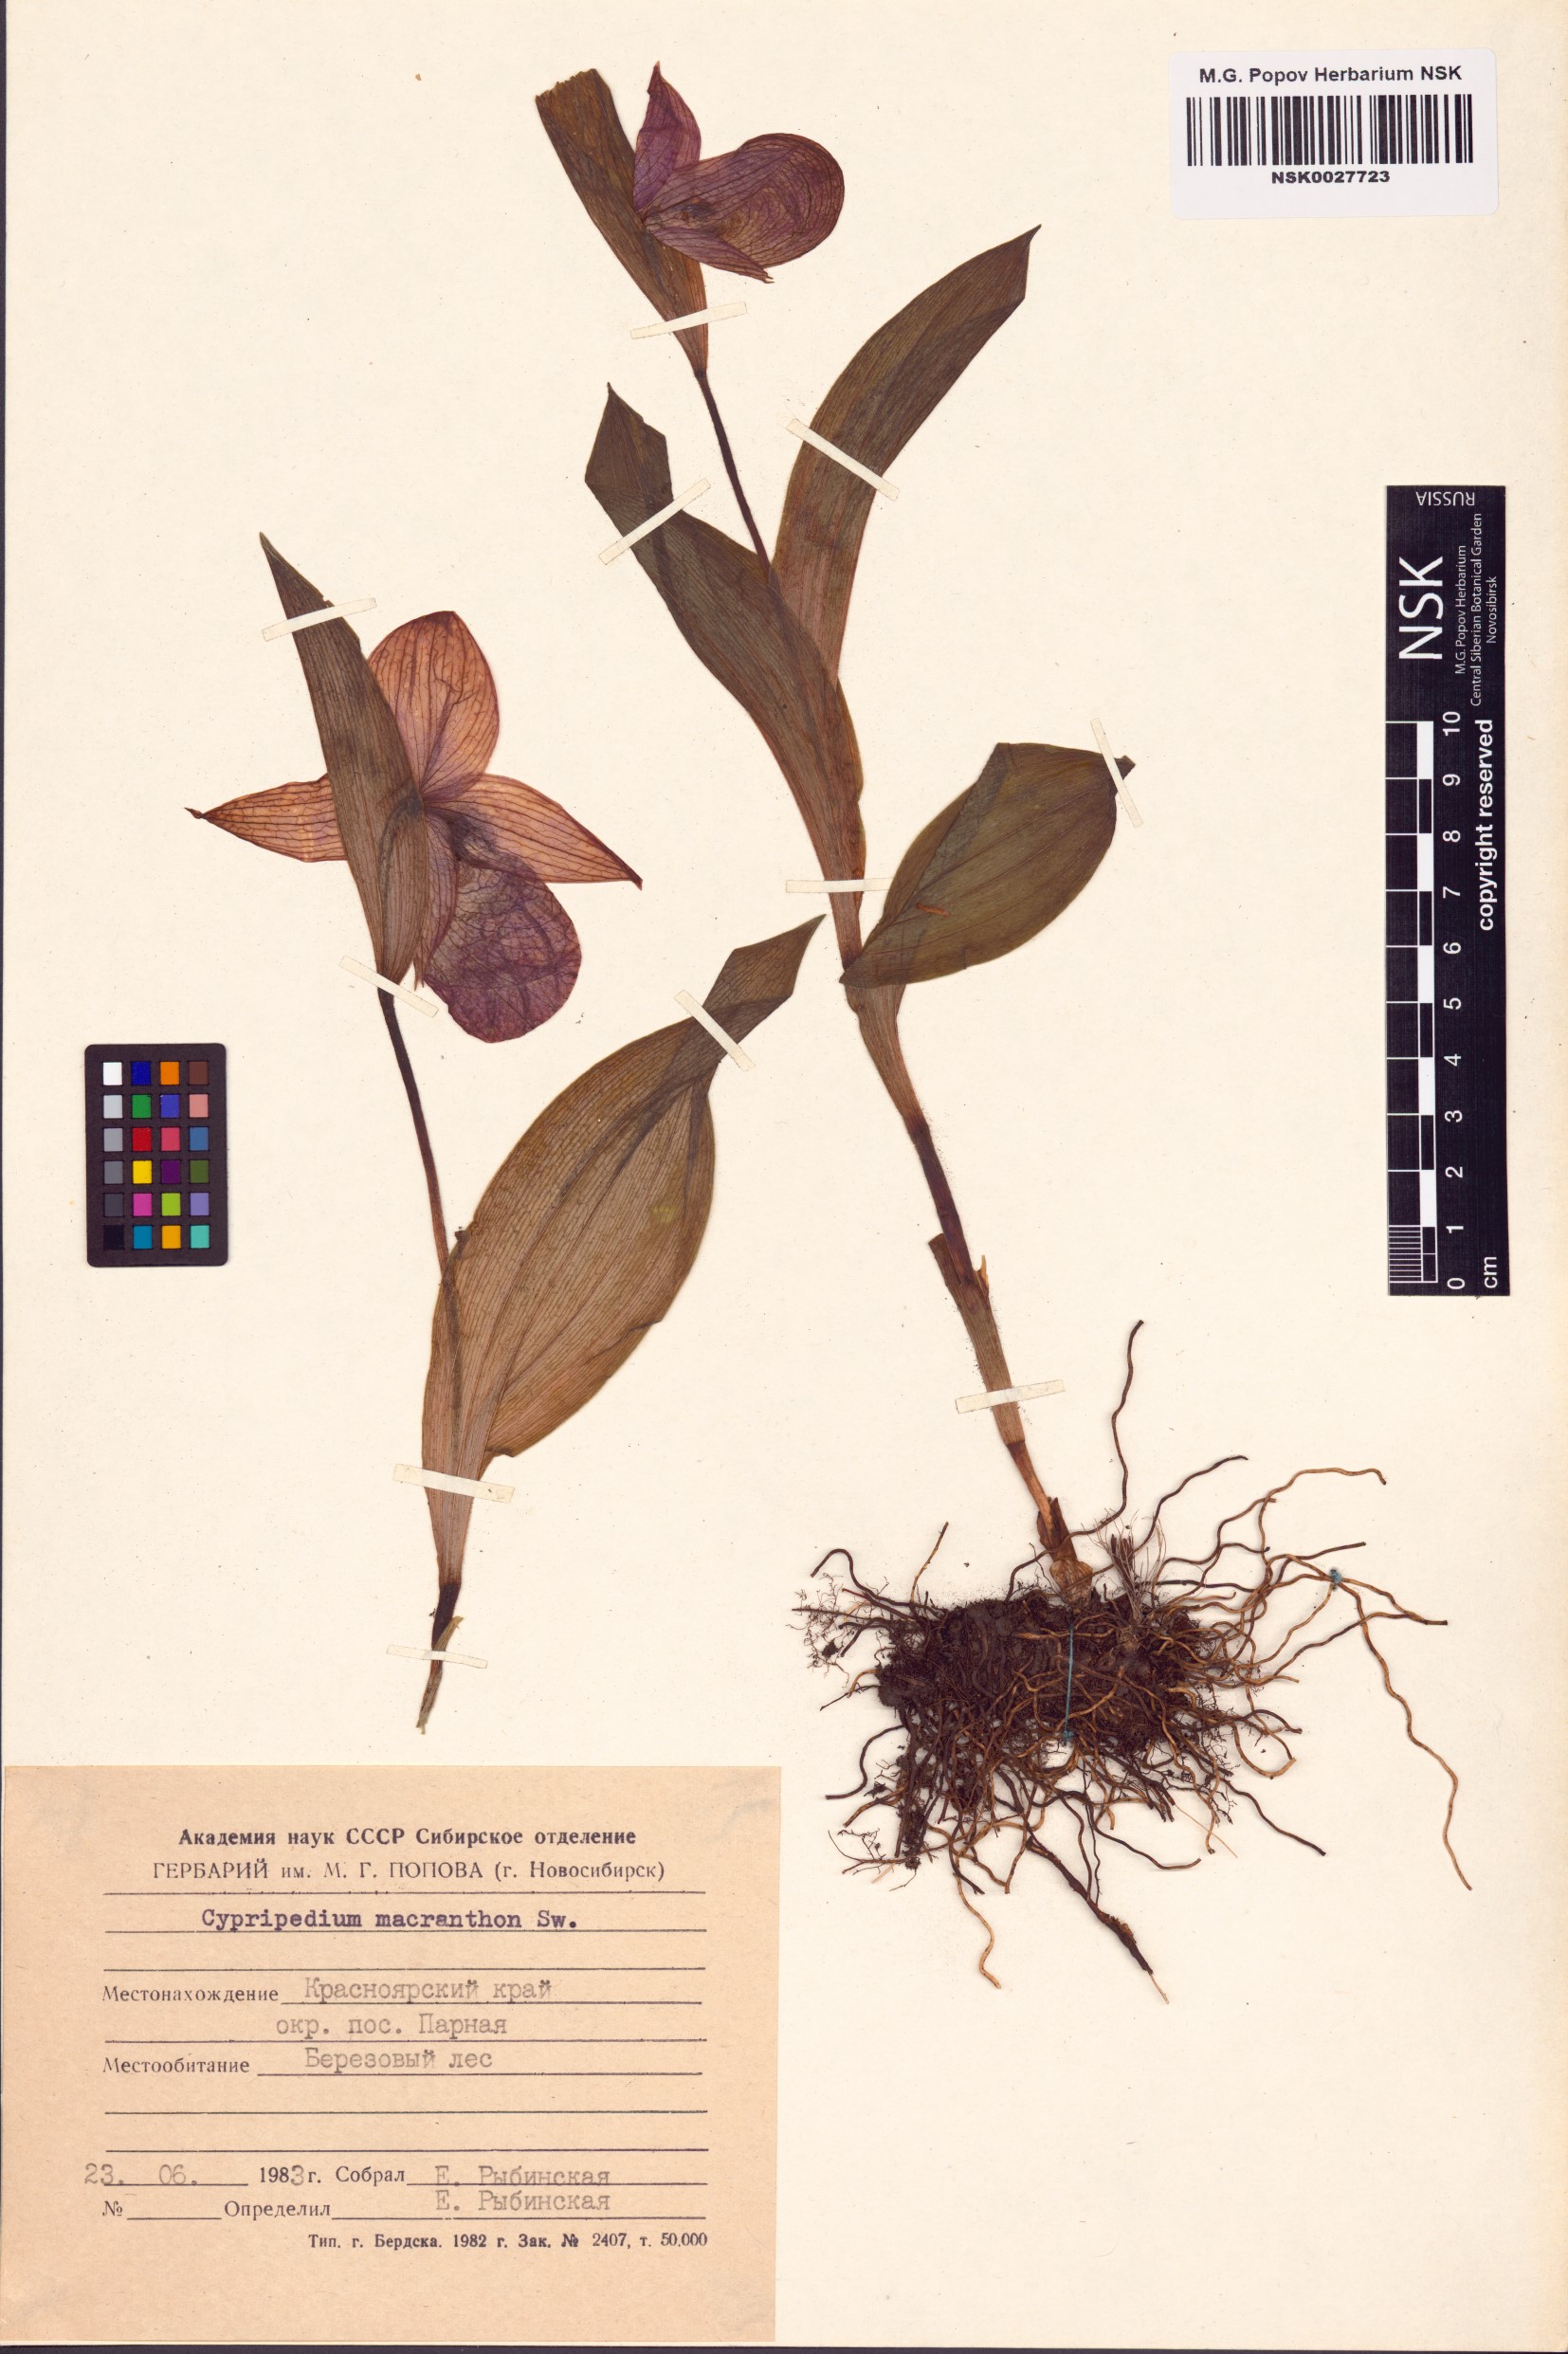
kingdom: Plantae
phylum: Tracheophyta
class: Liliopsida
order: Asparagales
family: Orchidaceae
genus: Cypripedium
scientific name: Cypripedium macranthos
